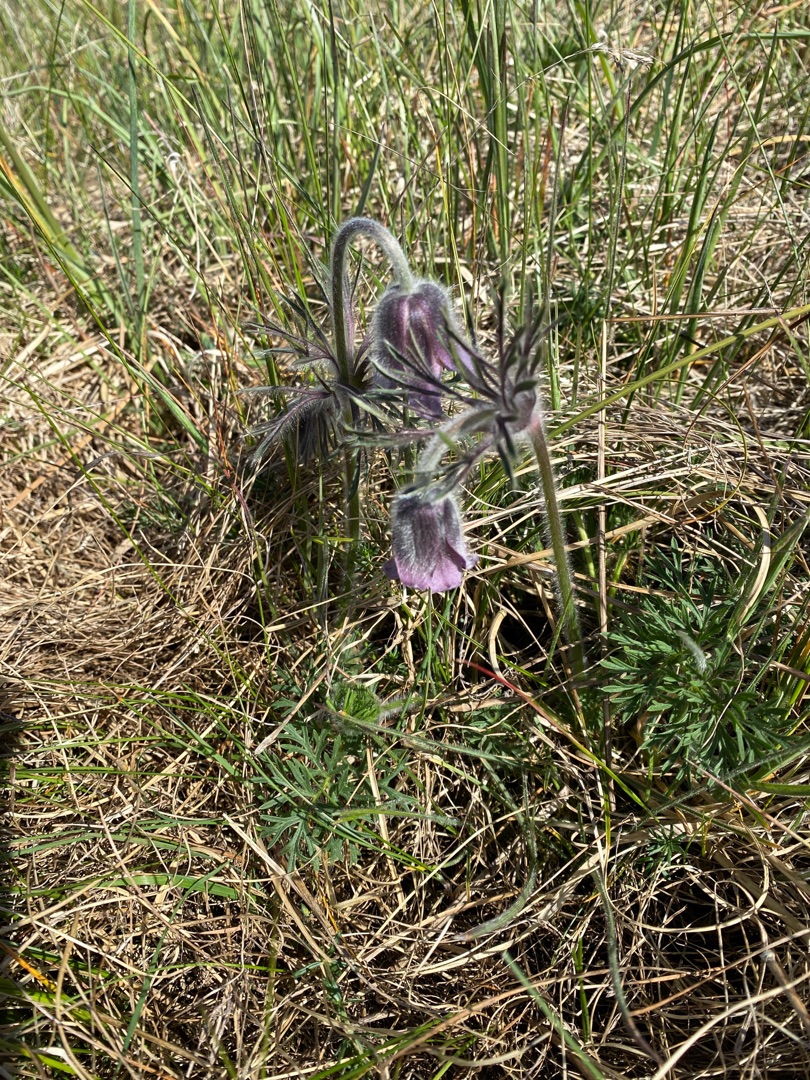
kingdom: Plantae
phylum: Tracheophyta
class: Magnoliopsida
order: Ranunculales
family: Ranunculaceae
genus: Pulsatilla
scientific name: Pulsatilla pratensis
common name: Nikkende kobjælde
